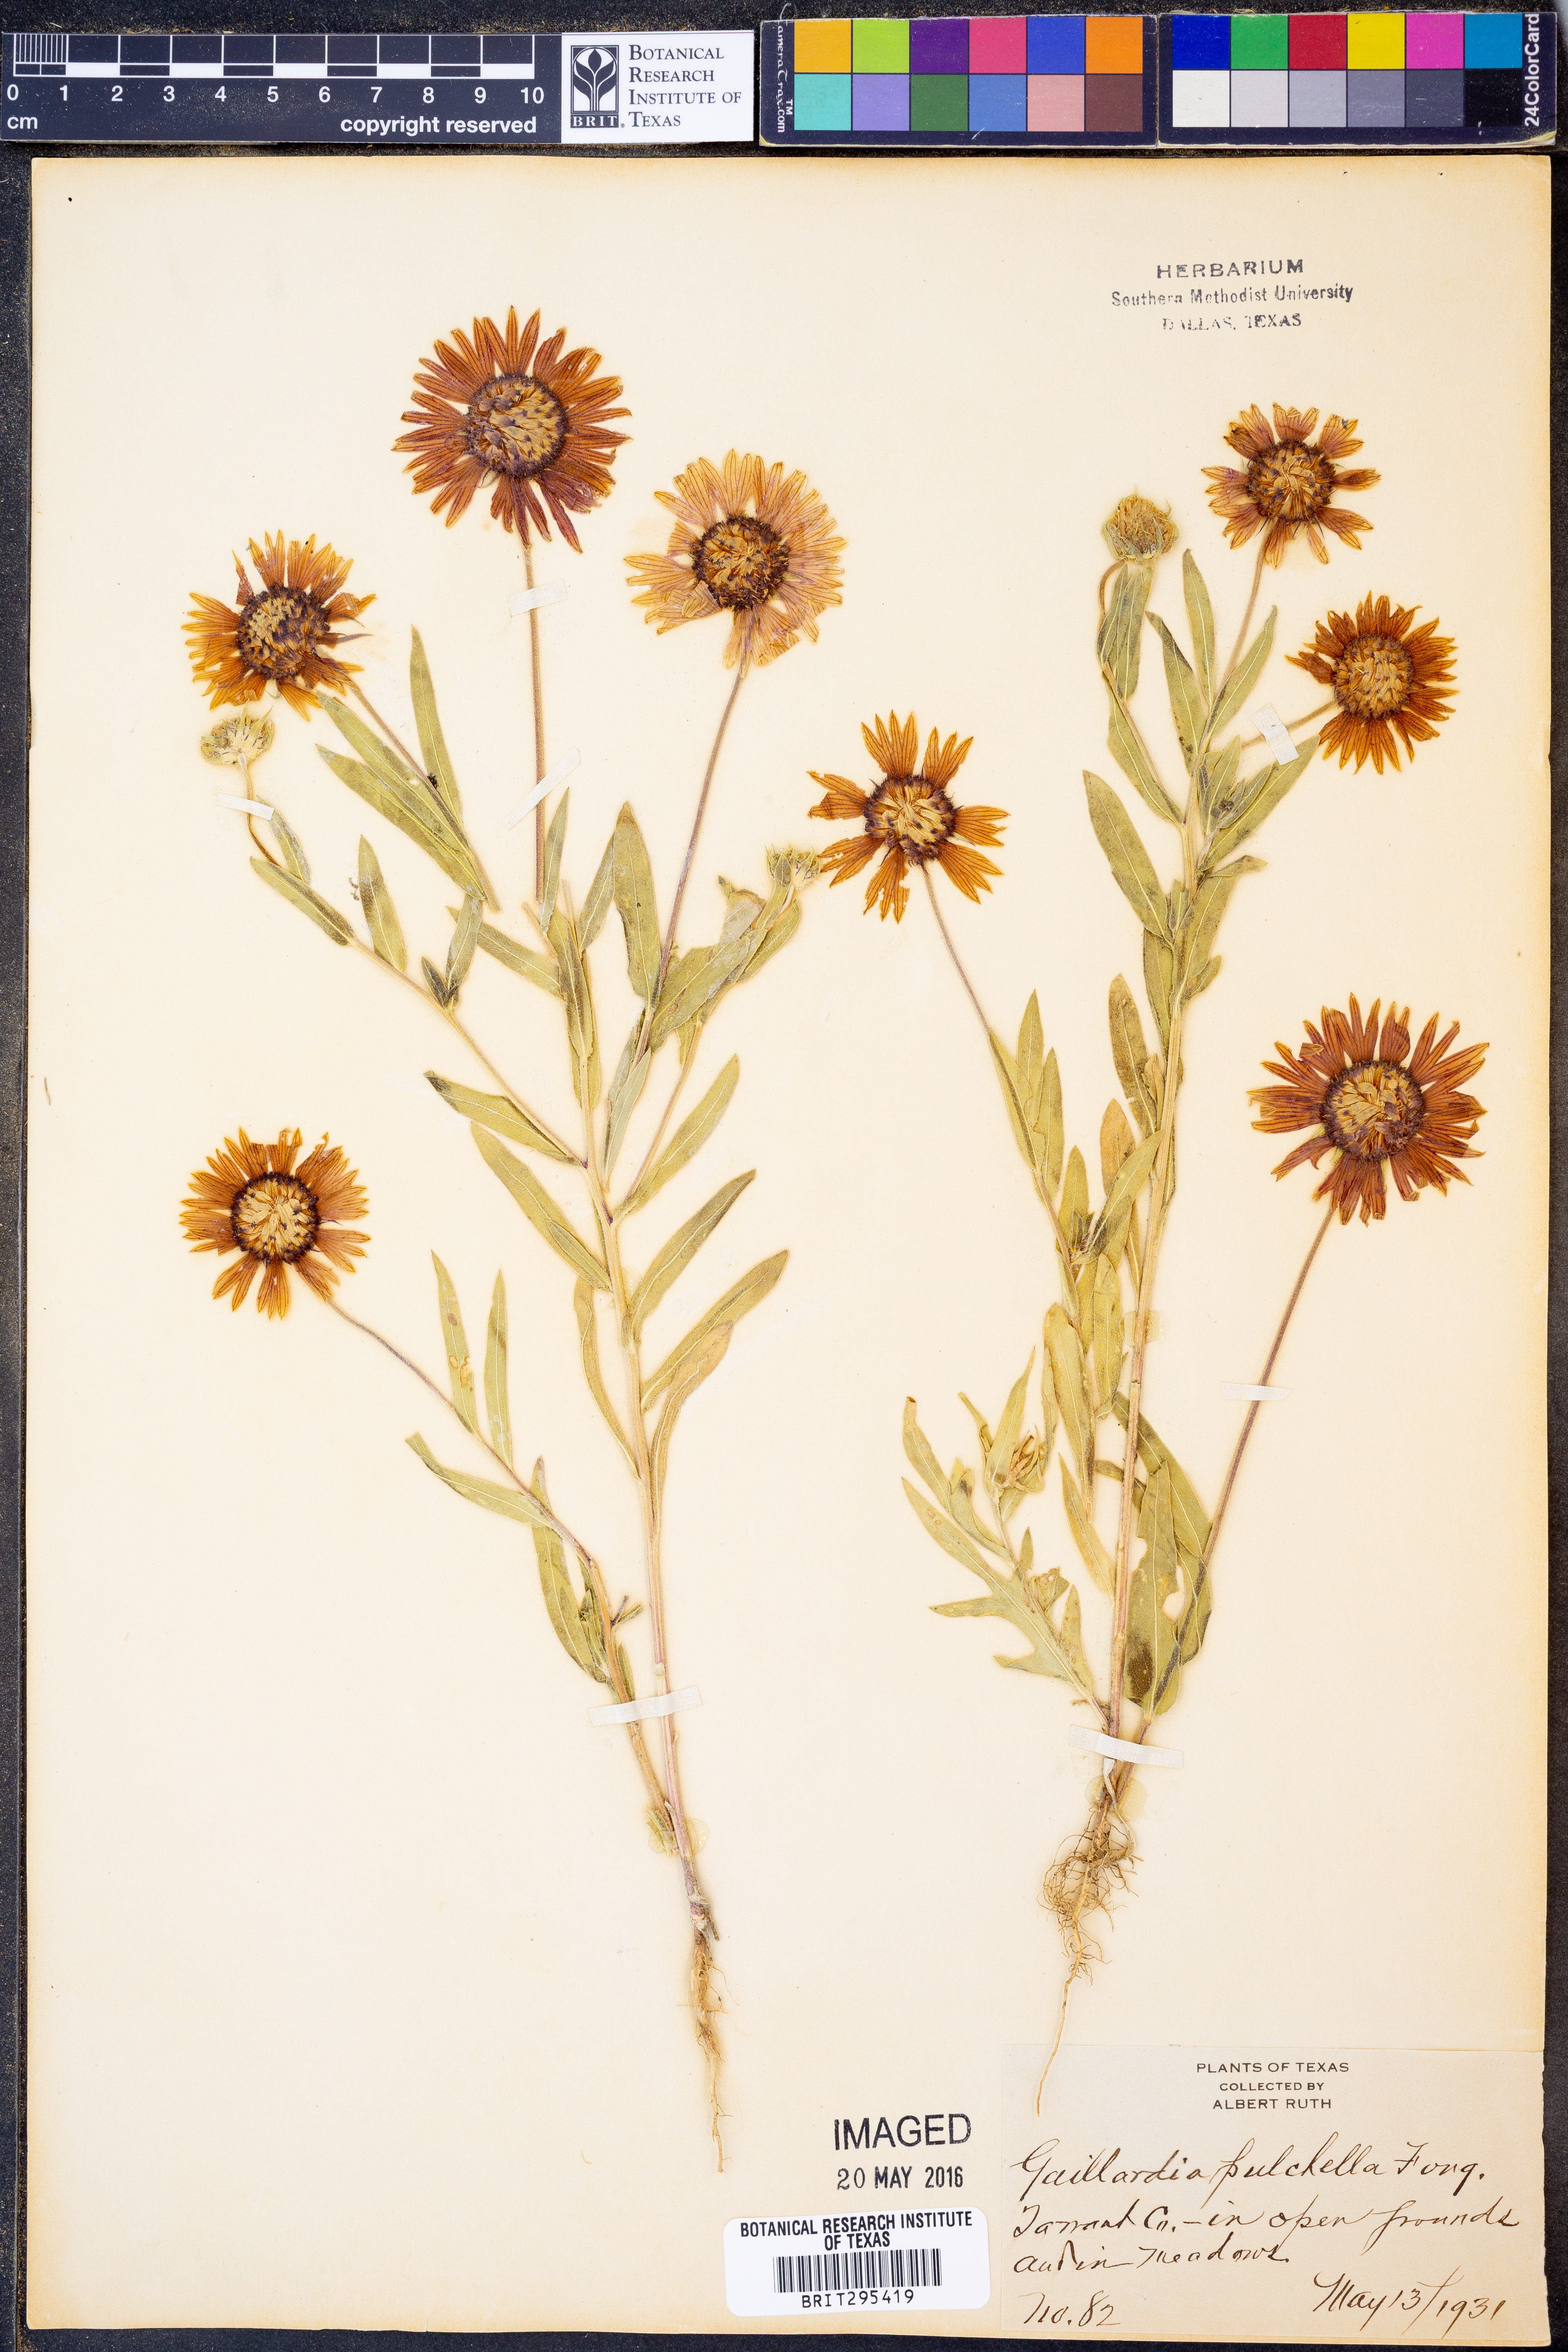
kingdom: Plantae
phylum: Tracheophyta
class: Magnoliopsida
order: Asterales
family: Asteraceae
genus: Gaillardia
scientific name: Gaillardia pulchella
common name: Firewheel
